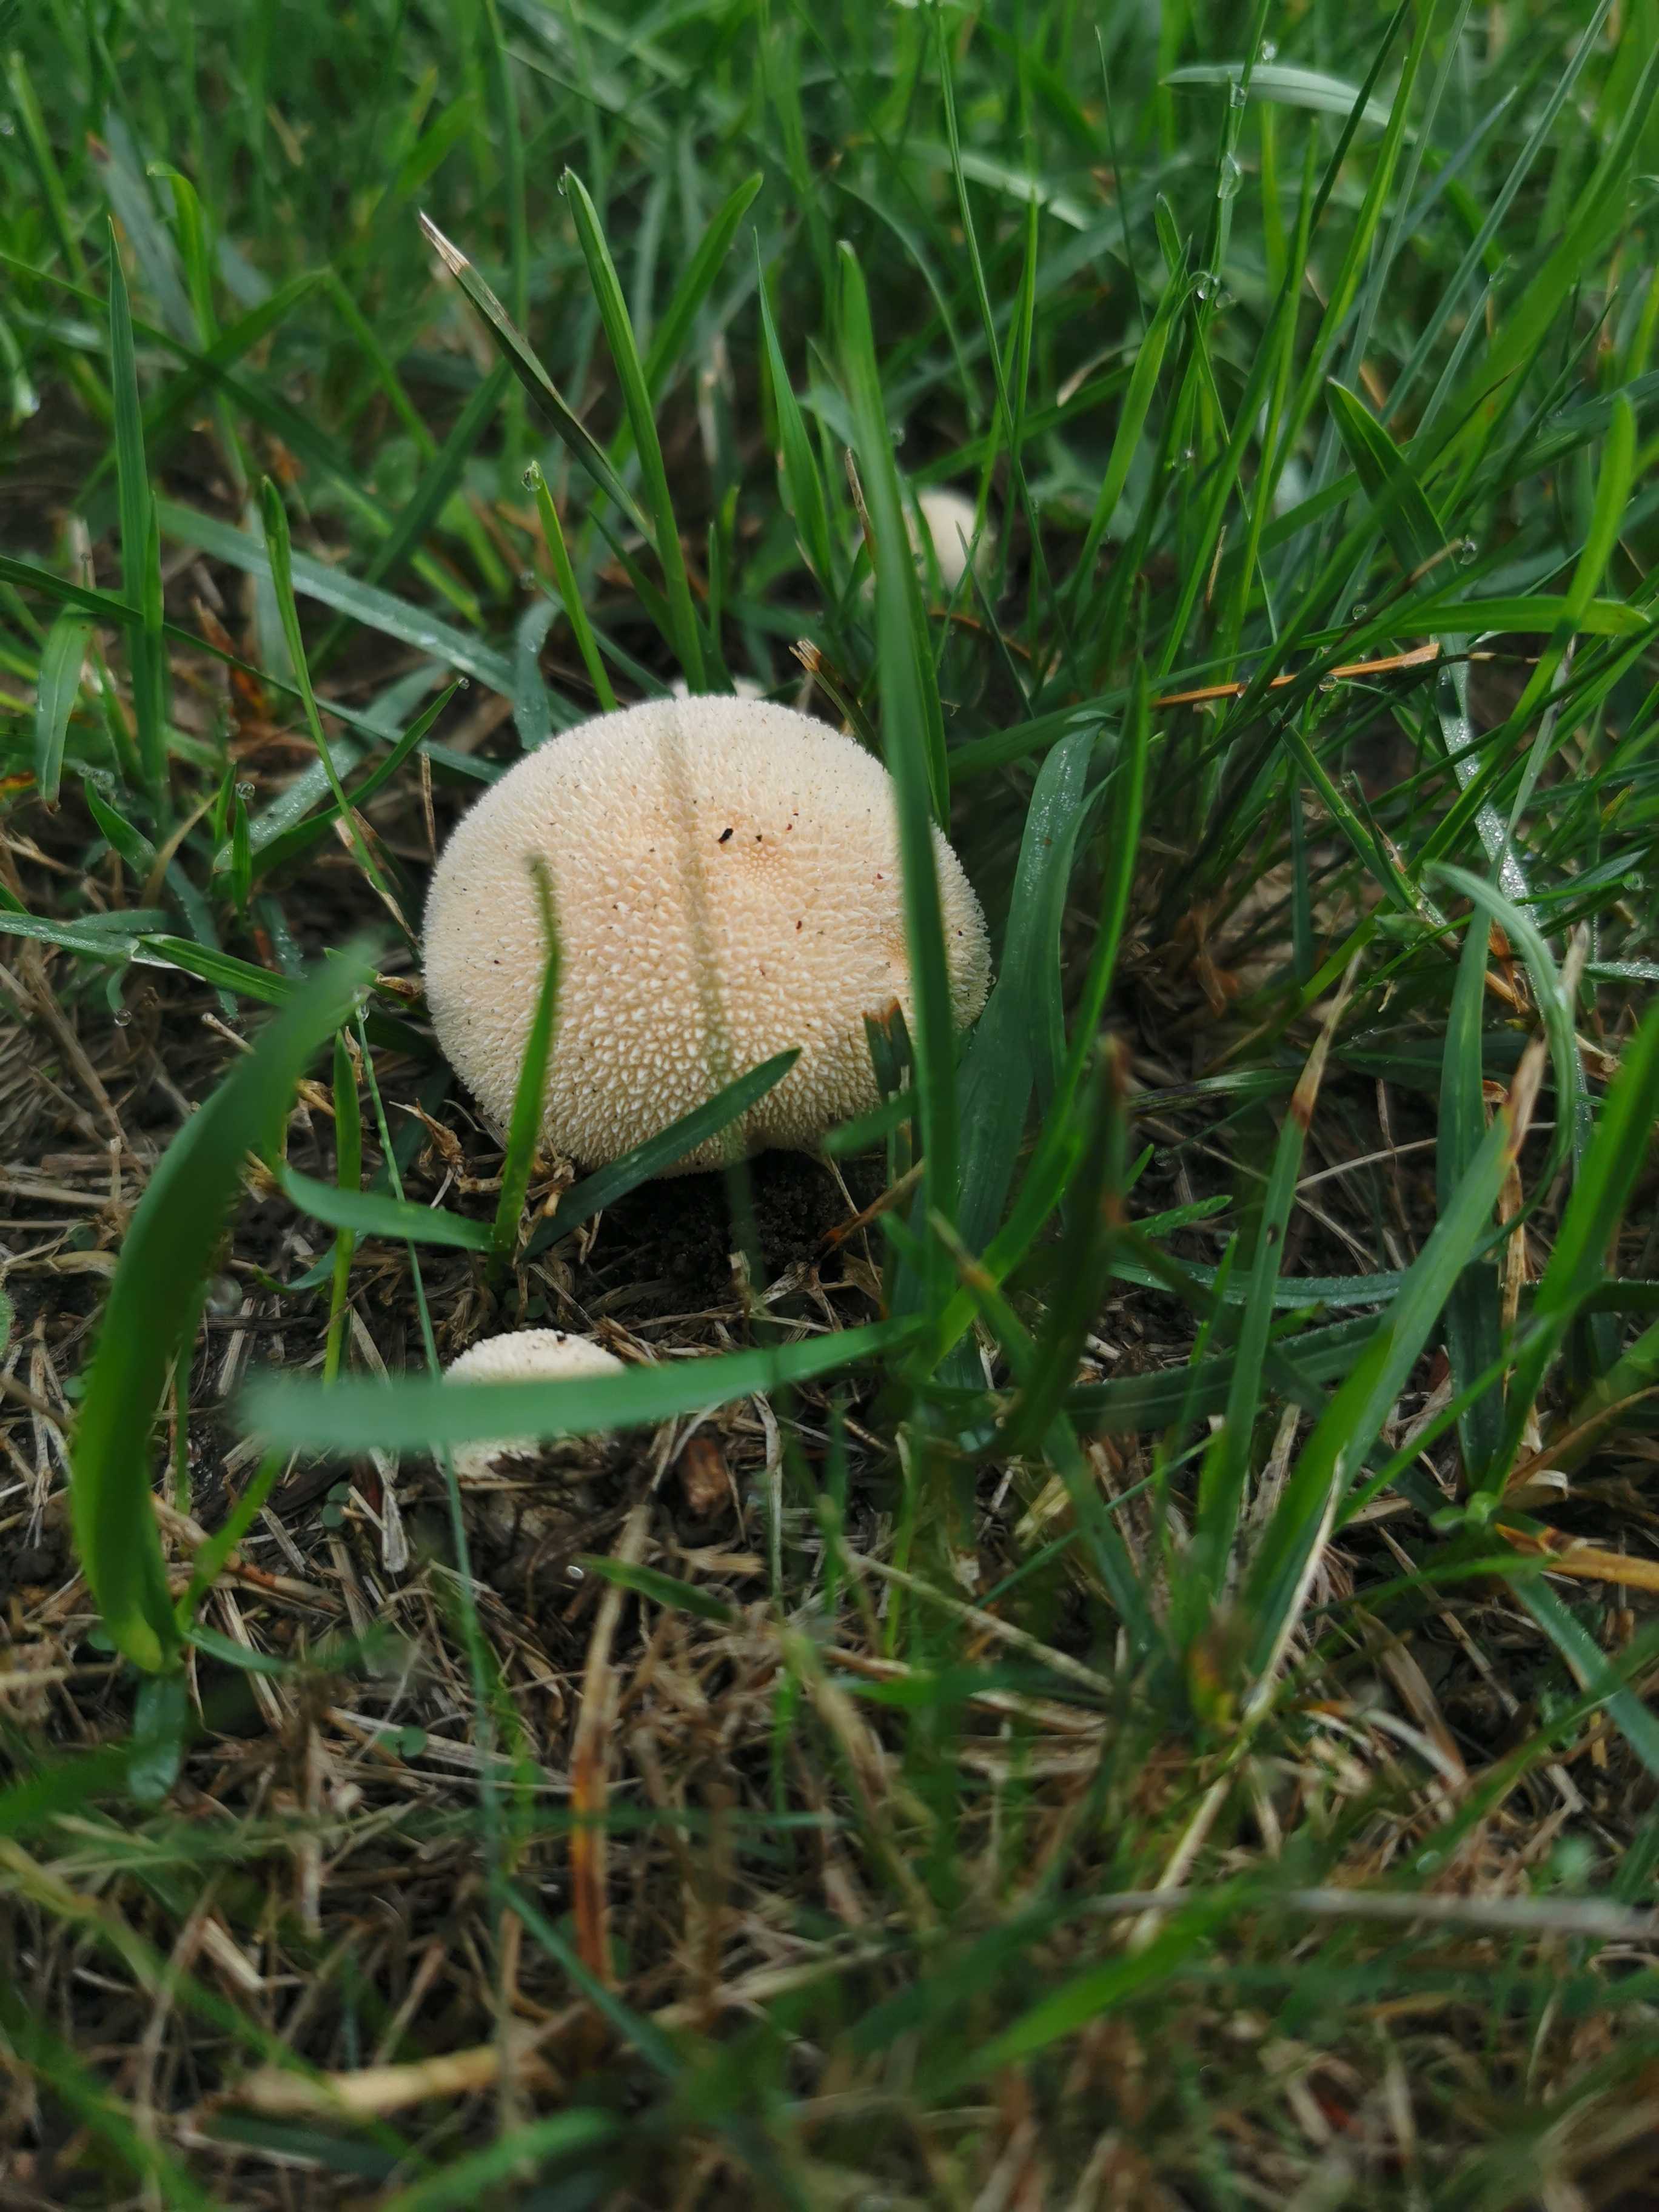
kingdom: Fungi
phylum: Basidiomycota
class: Agaricomycetes
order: Agaricales
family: Lycoperdaceae
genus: Lycoperdon
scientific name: Lycoperdon pratense
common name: flad støvbold
